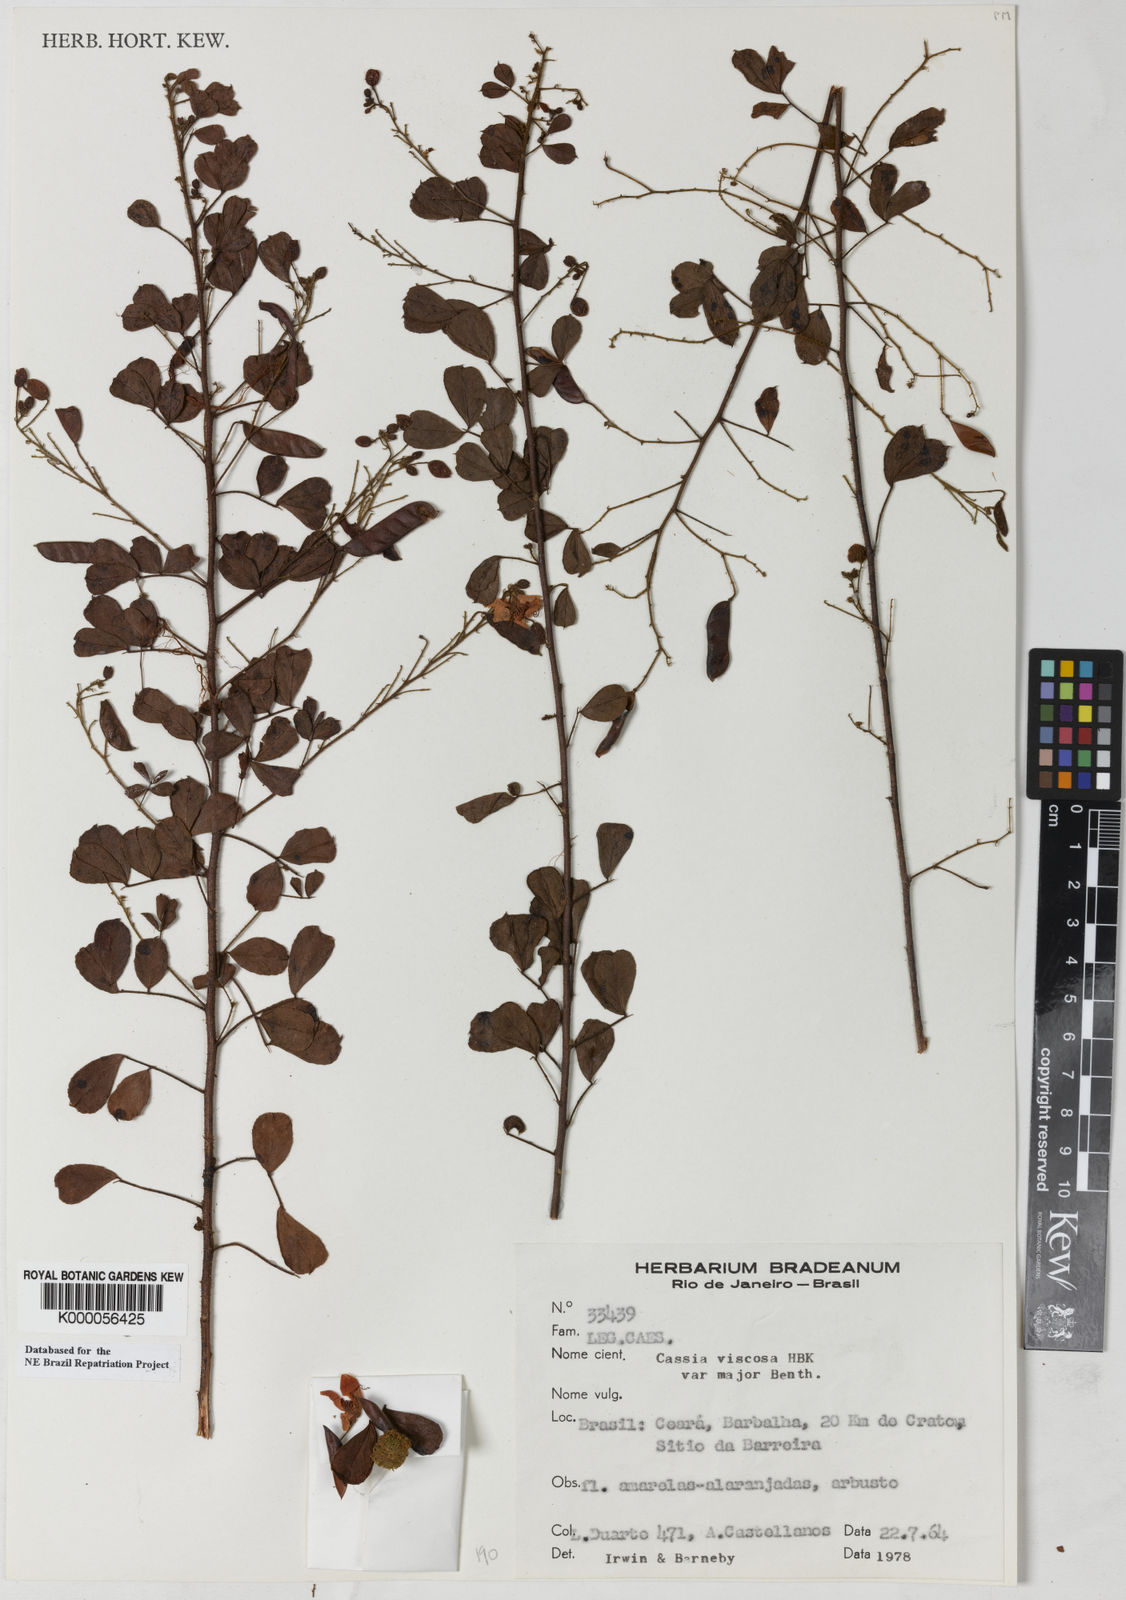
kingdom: Plantae
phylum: Tracheophyta
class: Magnoliopsida
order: Fabales
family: Fabaceae
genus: Chamaecrista
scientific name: Chamaecrista viscosa
